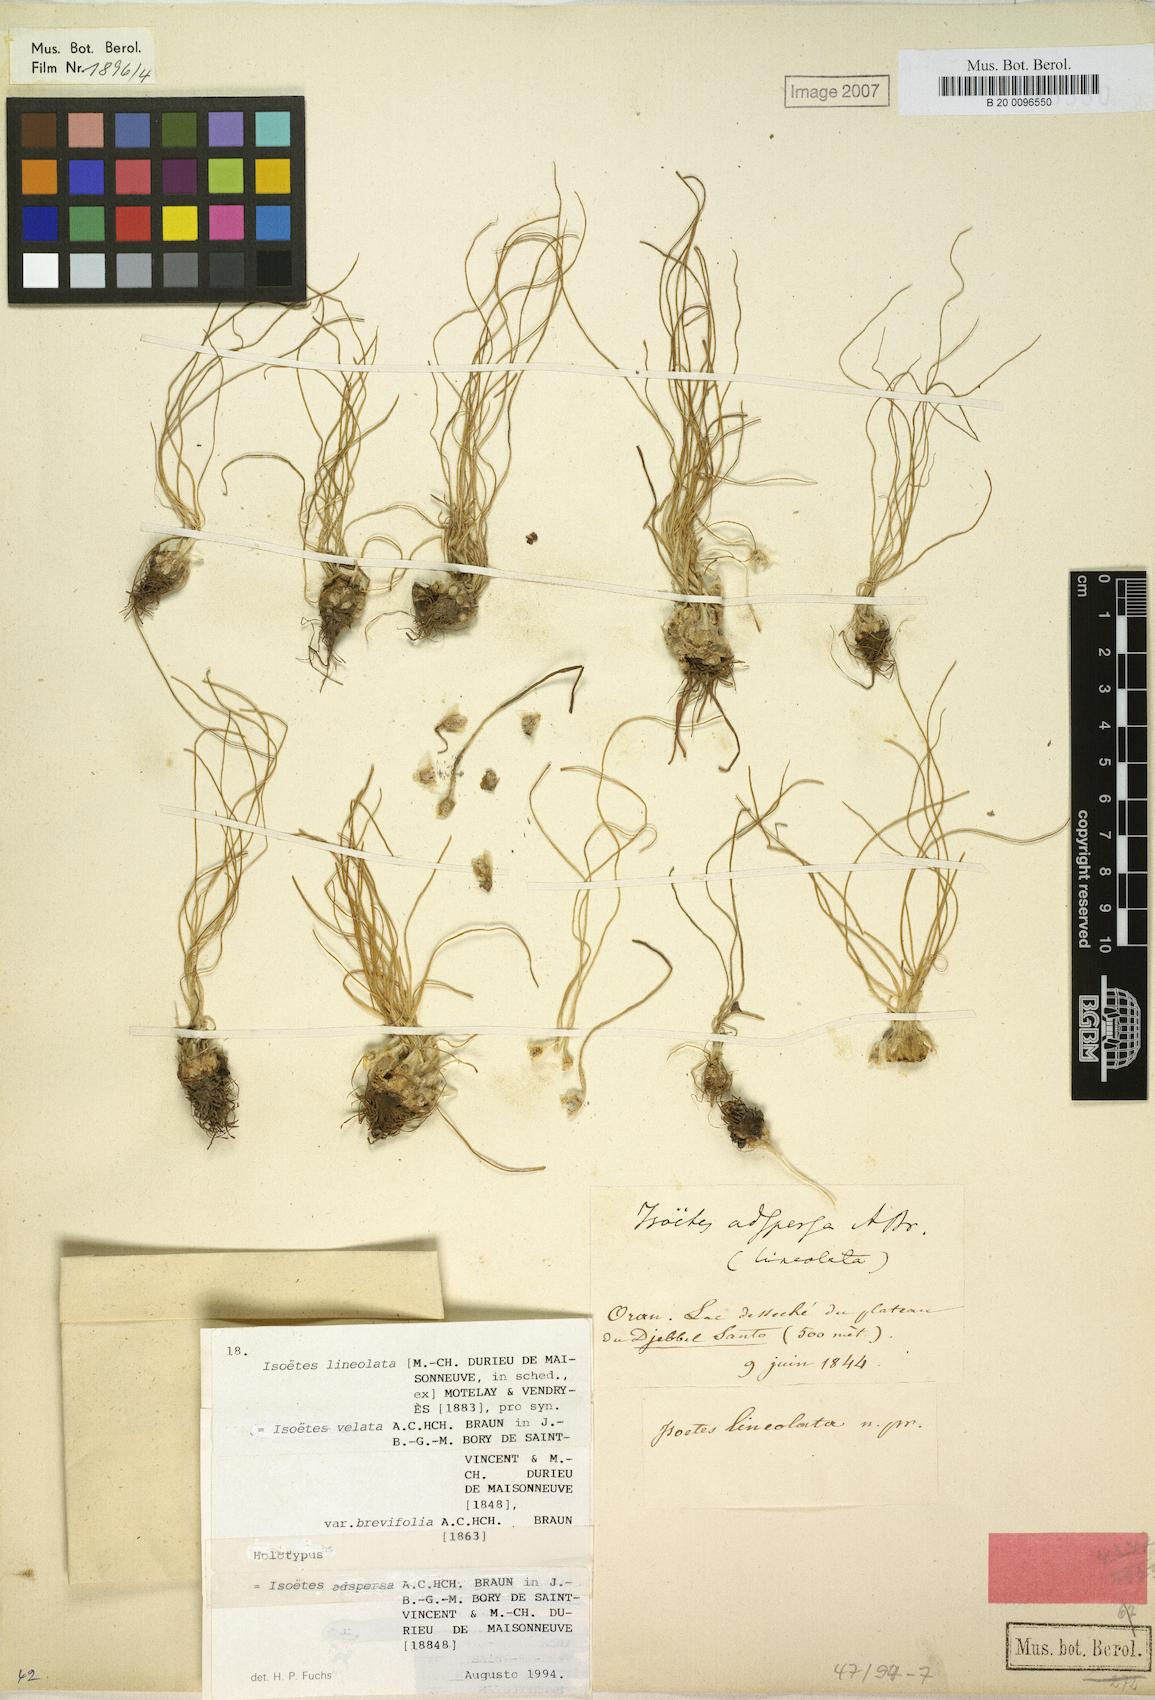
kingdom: Plantae
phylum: Tracheophyta
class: Lycopodiopsida
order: Isoetales
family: Isoetaceae
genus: Isoetes
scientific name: Isoetes longissima
